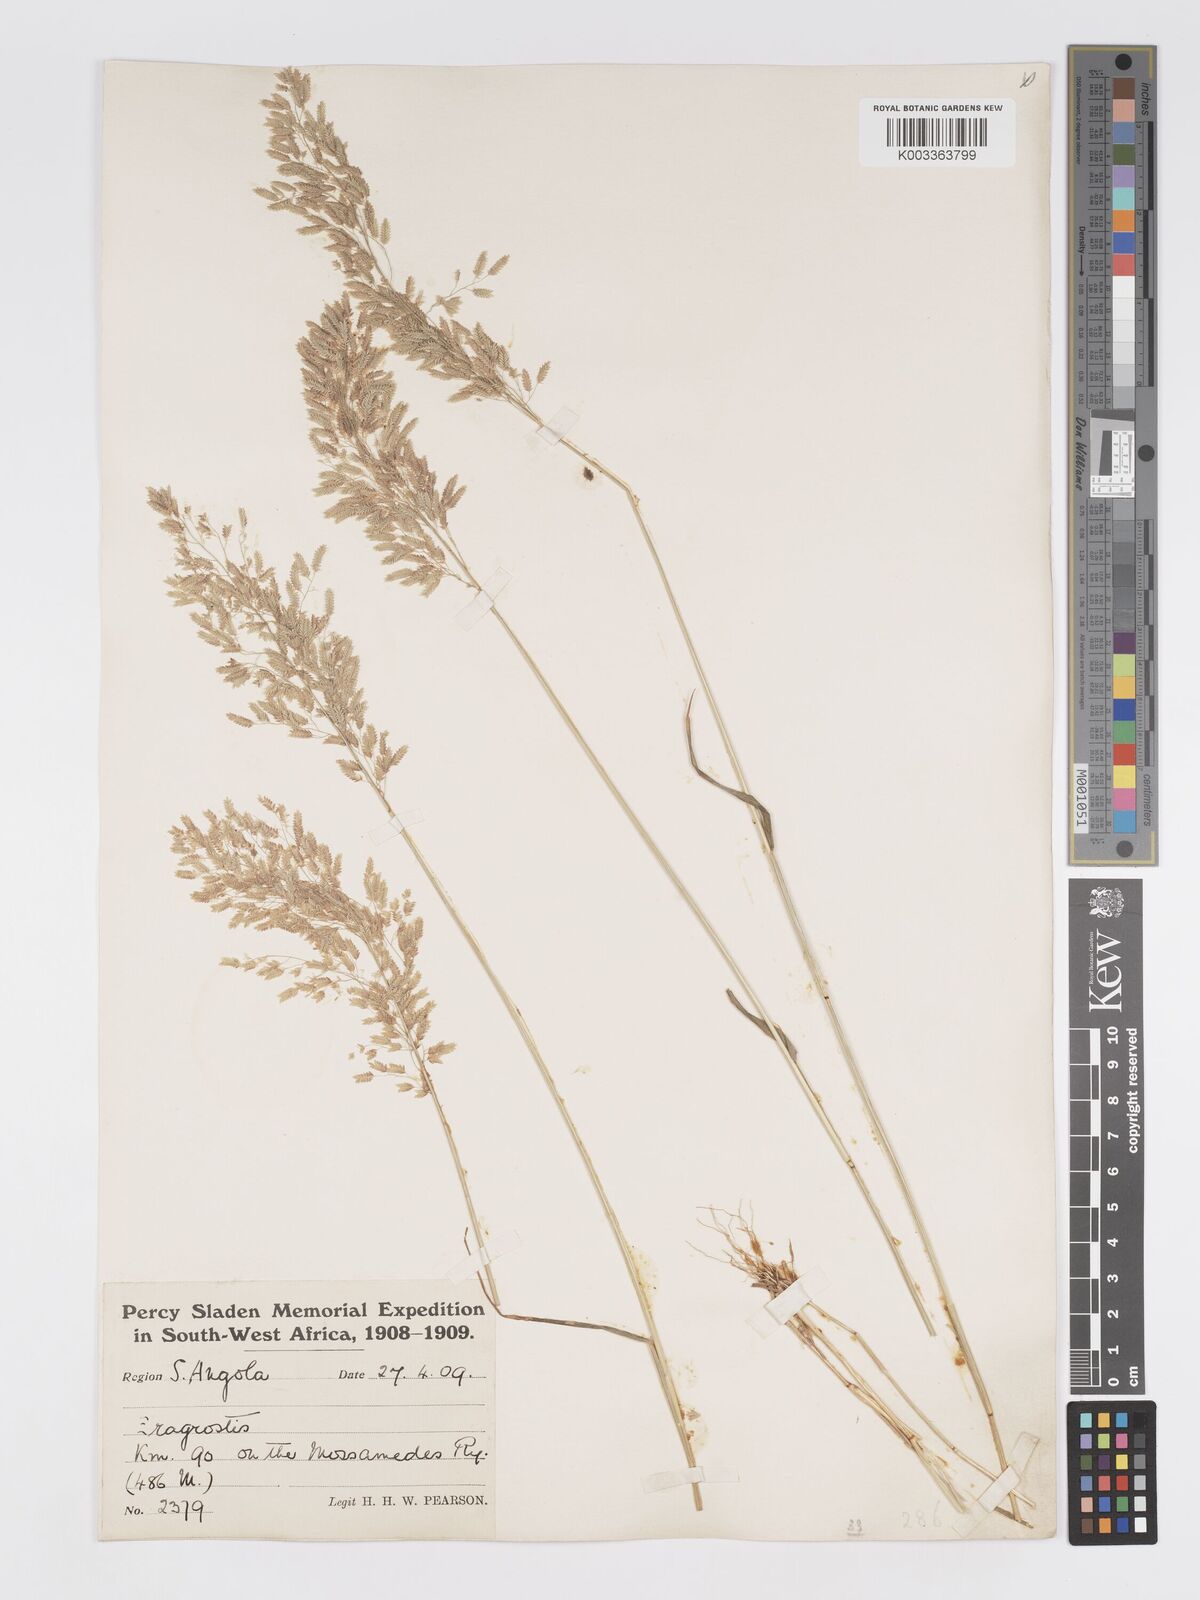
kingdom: Plantae
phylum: Tracheophyta
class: Liliopsida
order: Poales
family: Poaceae
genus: Eragrostis
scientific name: Eragrostis annulata
